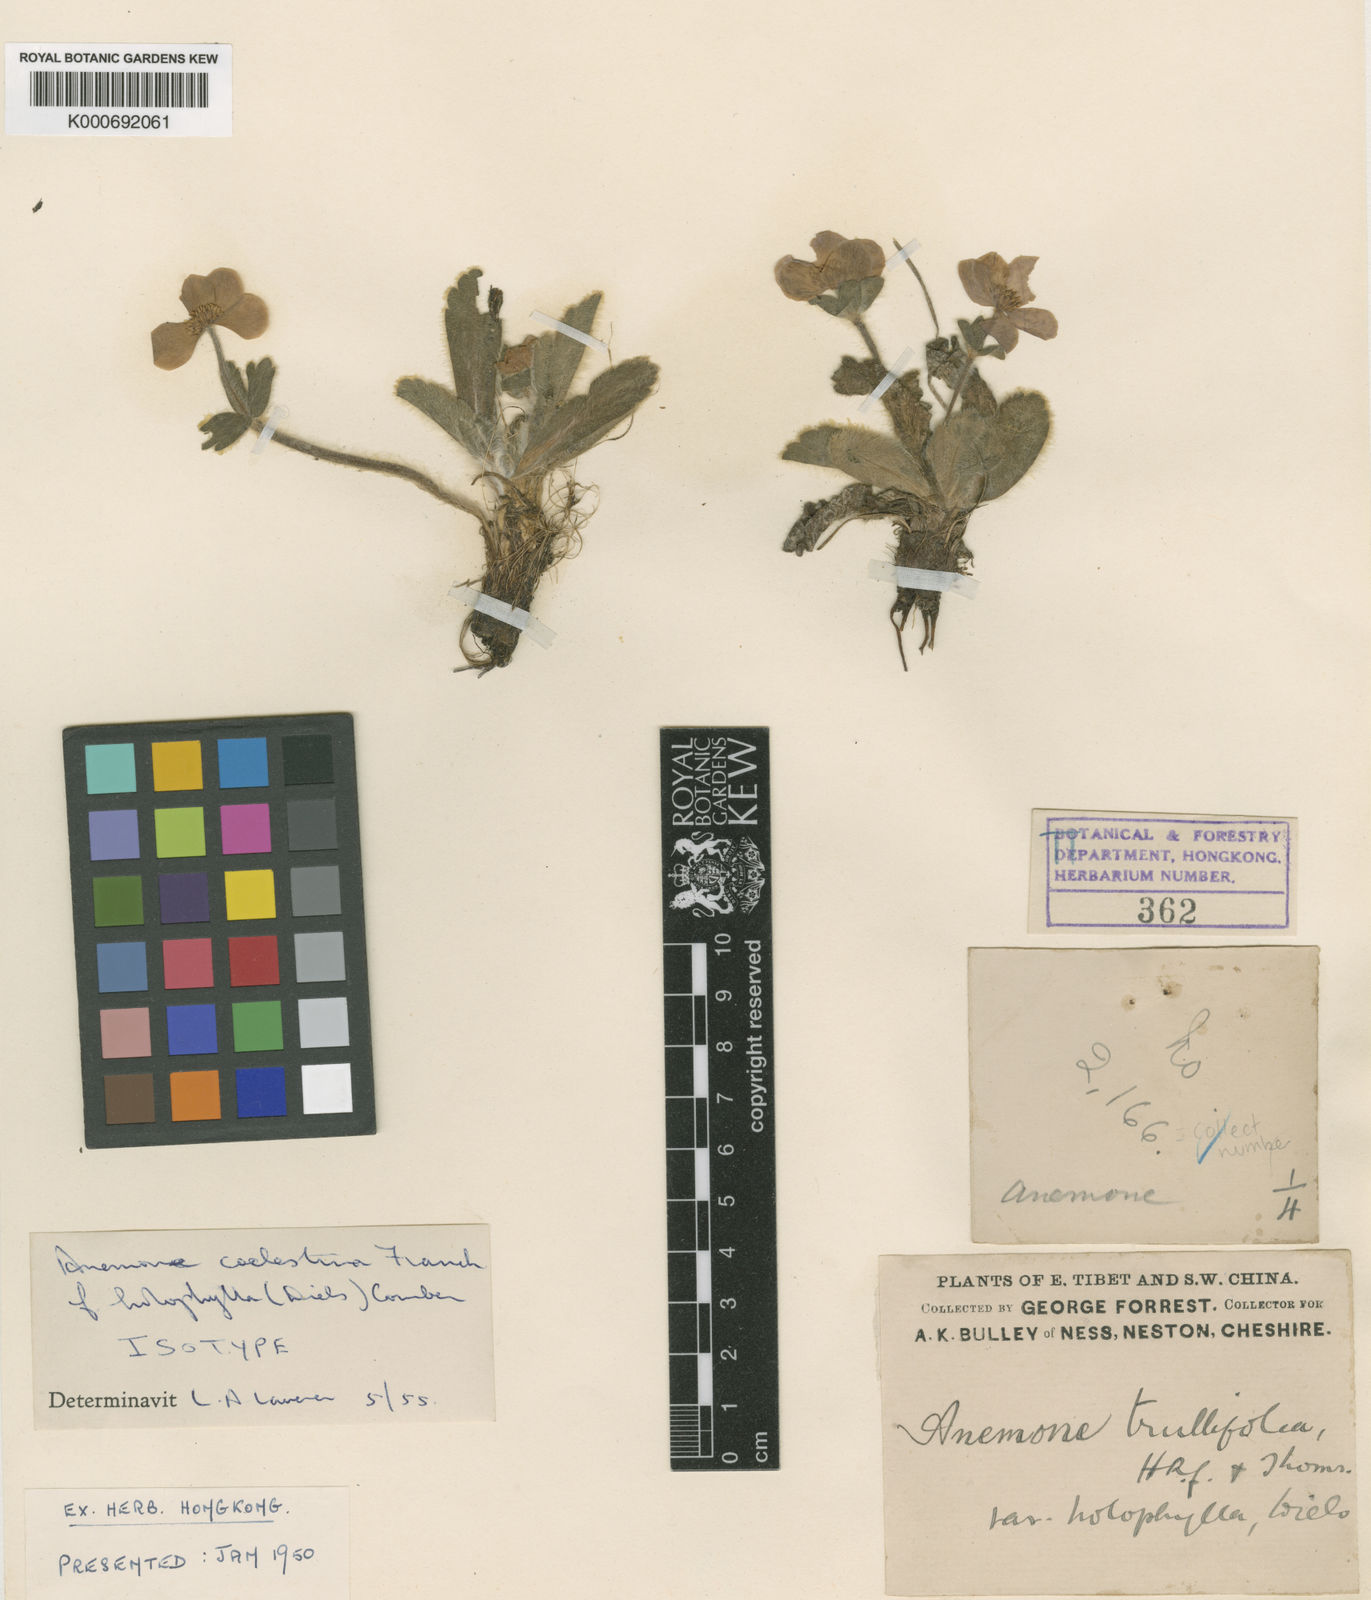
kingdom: Plantae
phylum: Tracheophyta
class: Magnoliopsida
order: Ranunculales
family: Ranunculaceae
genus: Anemonastrum
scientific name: Anemonastrum trullifolium
